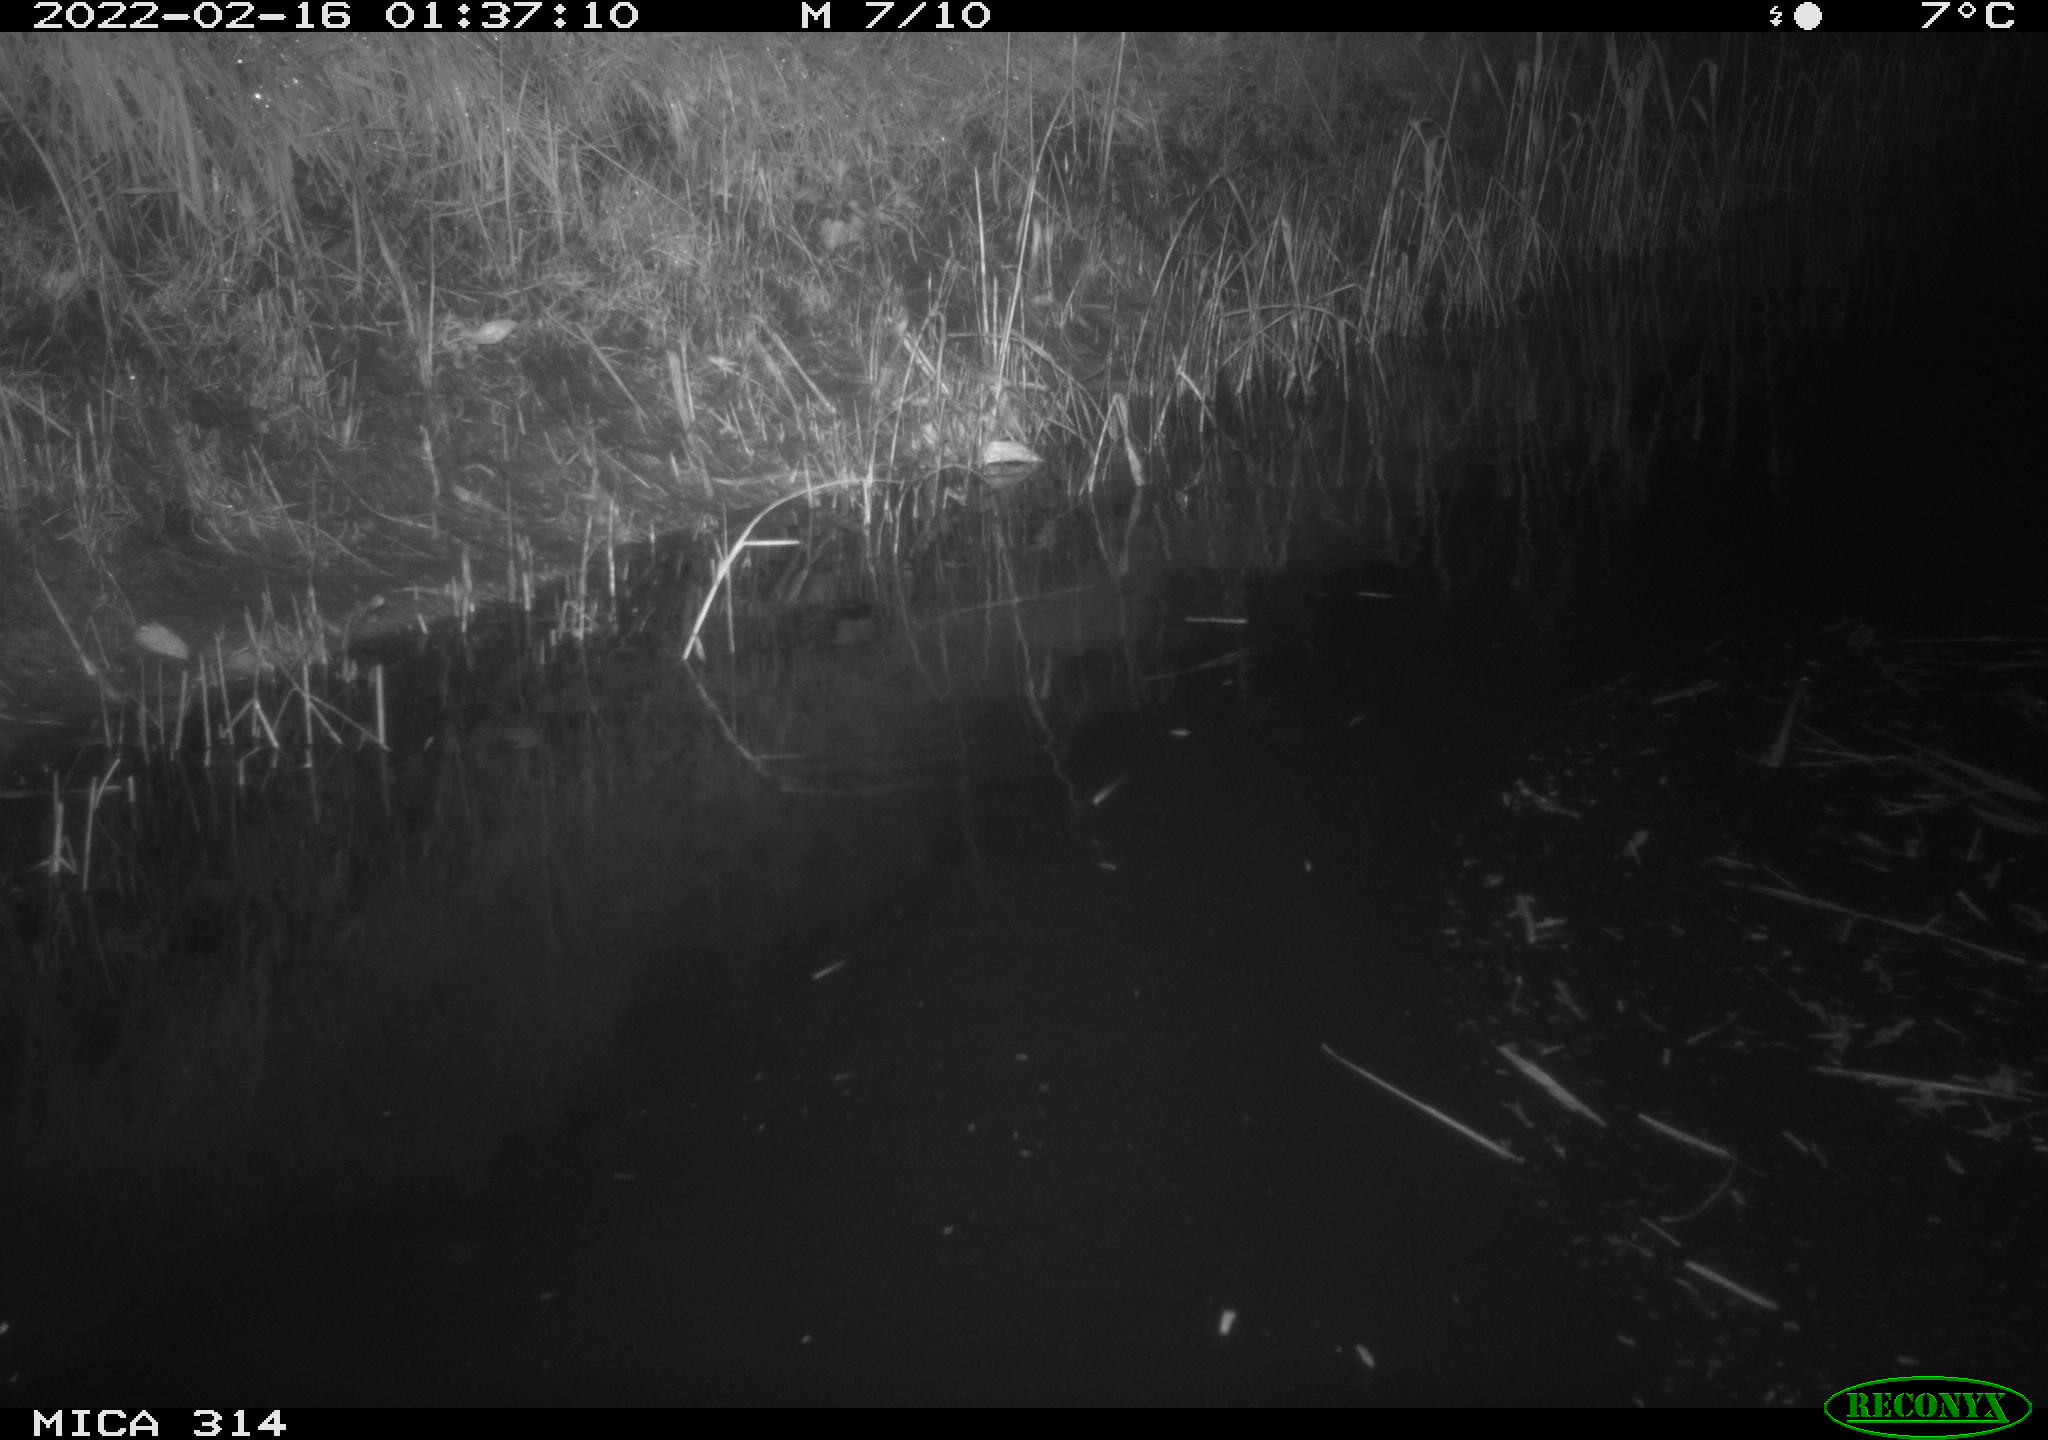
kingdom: Animalia
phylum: Chordata
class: Mammalia
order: Rodentia
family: Muridae
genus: Rattus
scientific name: Rattus norvegicus
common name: Brown rat
